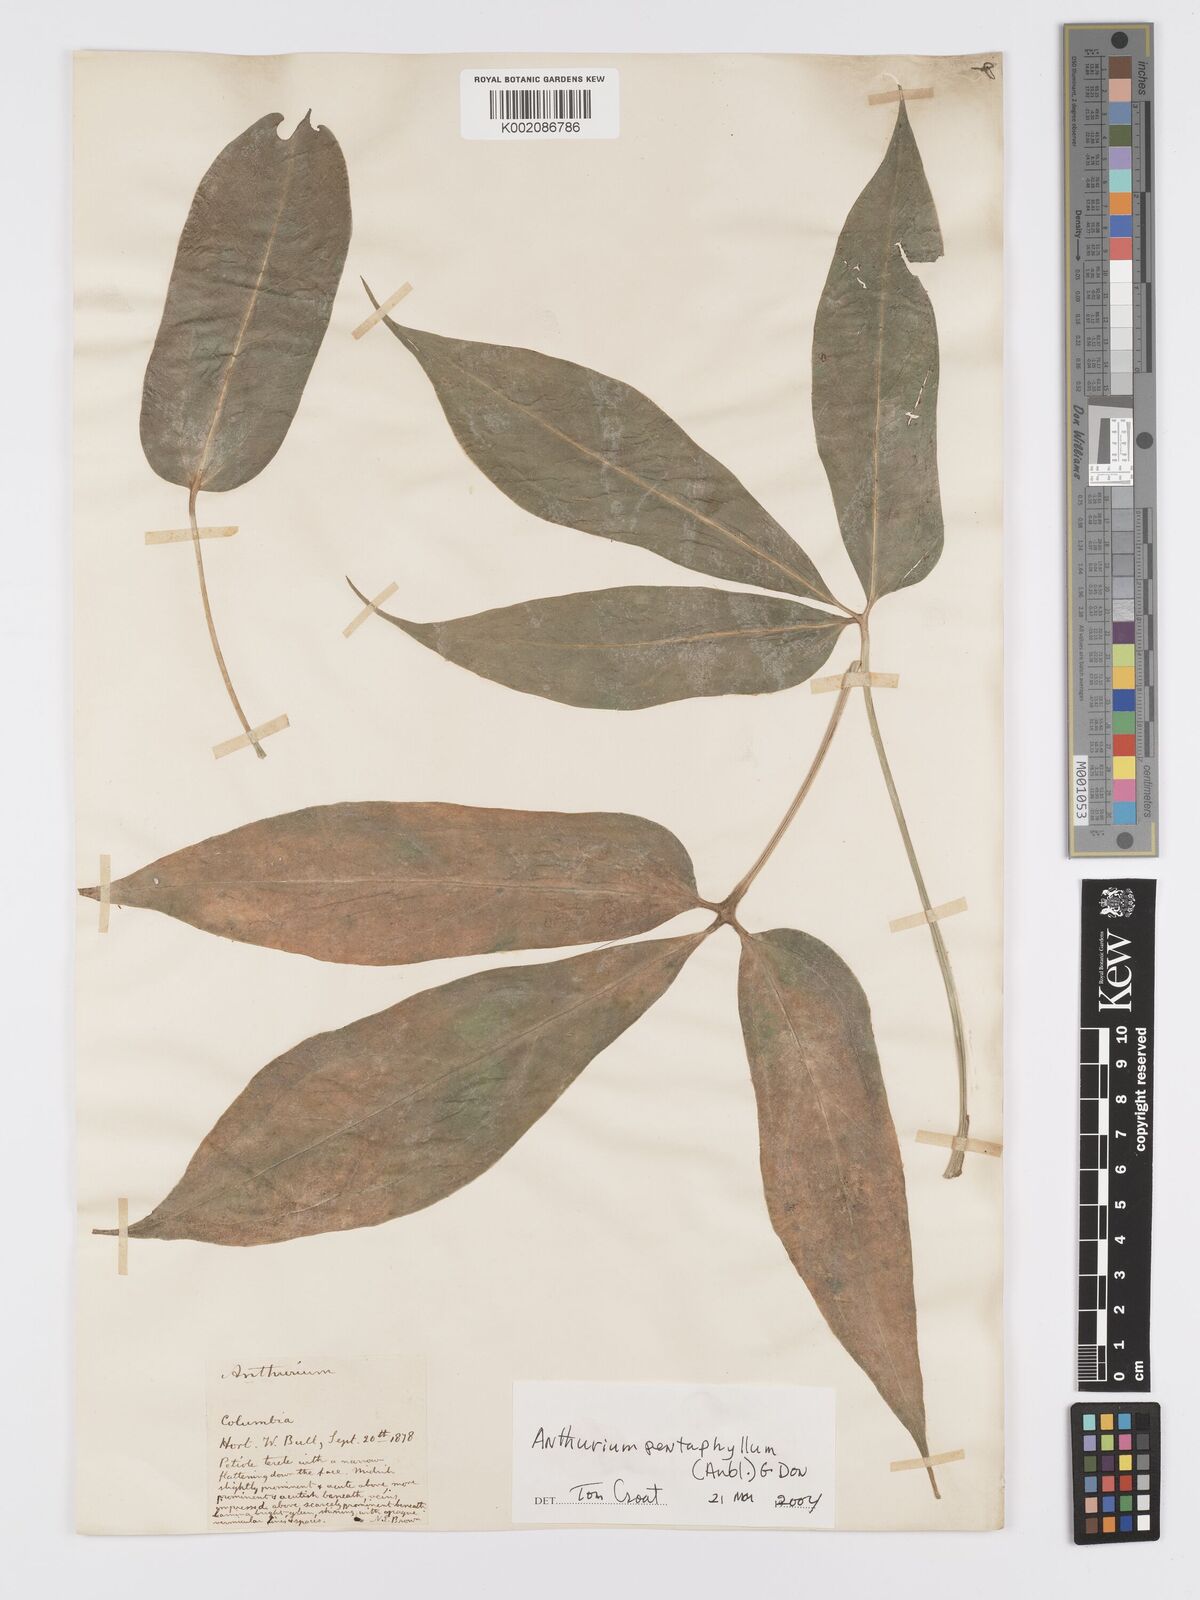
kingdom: Plantae
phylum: Tracheophyta
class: Liliopsida
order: Alismatales
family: Araceae
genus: Anthurium
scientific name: Anthurium pentaphyllum
